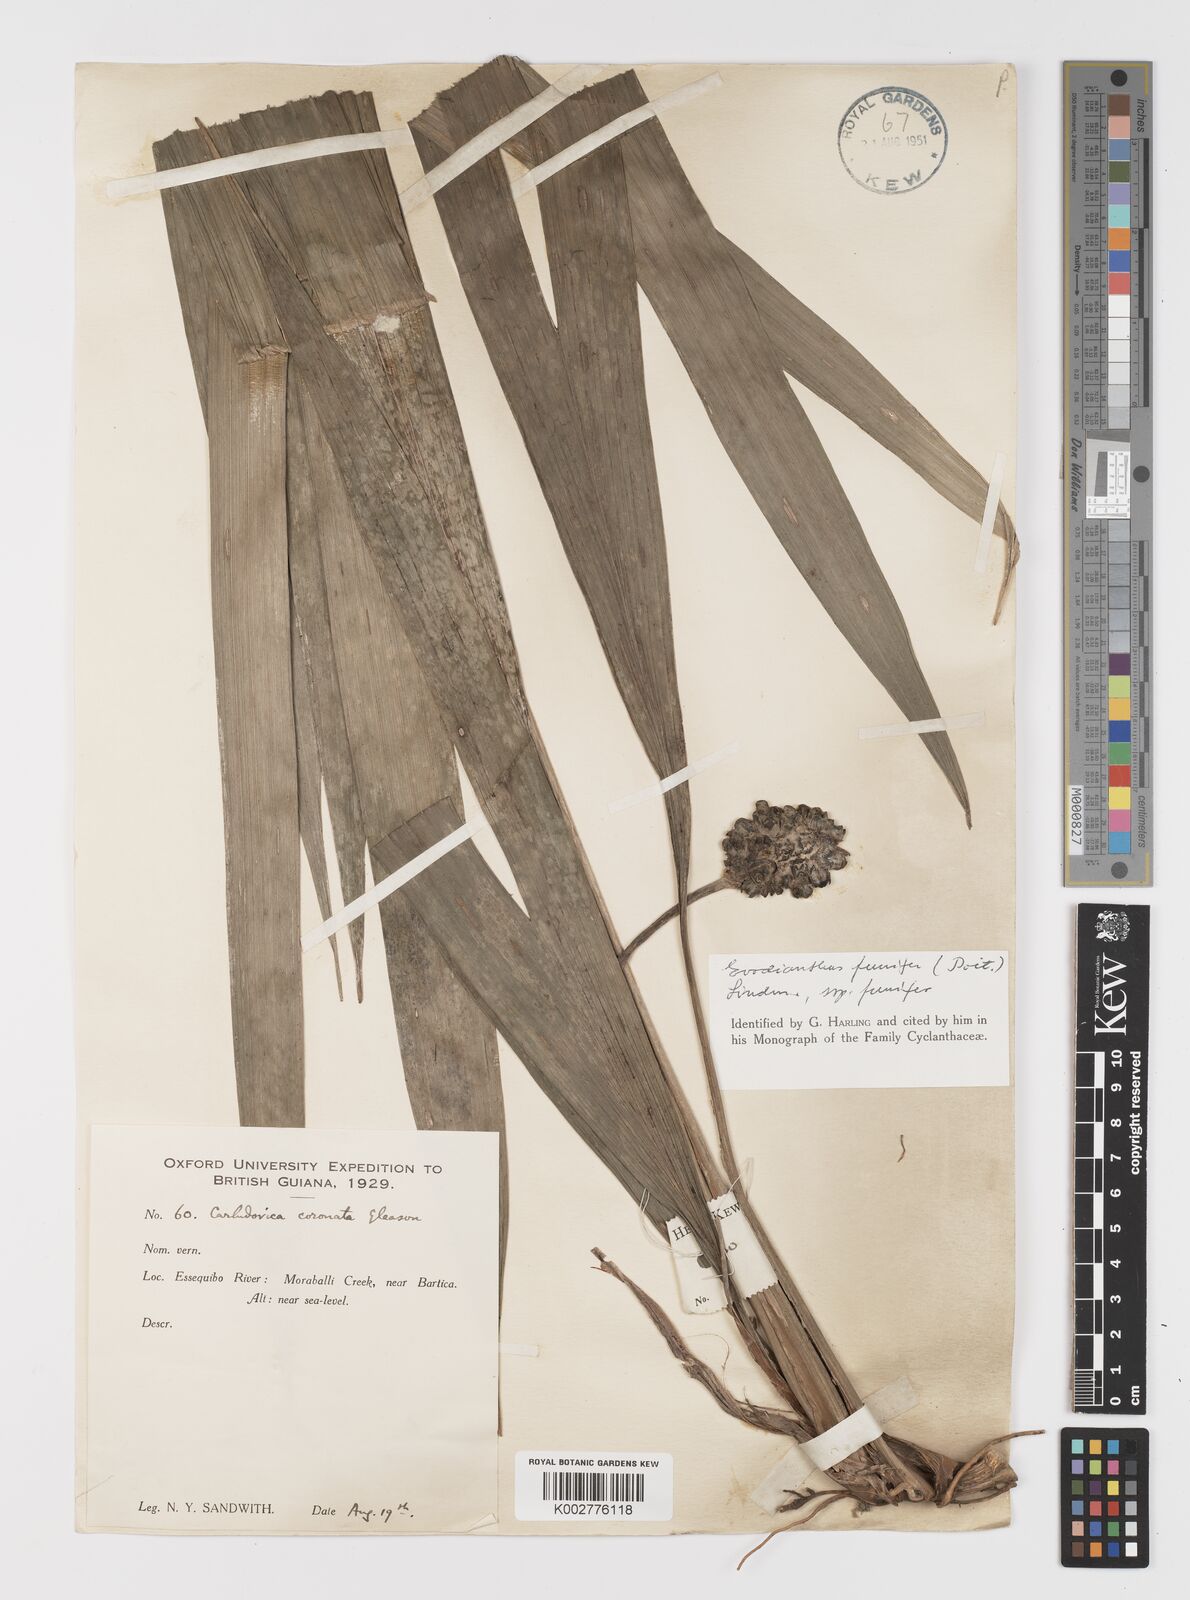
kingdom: Plantae
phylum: Tracheophyta
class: Liliopsida
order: Pandanales
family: Cyclanthaceae
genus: Evodianthus
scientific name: Evodianthus funifer
